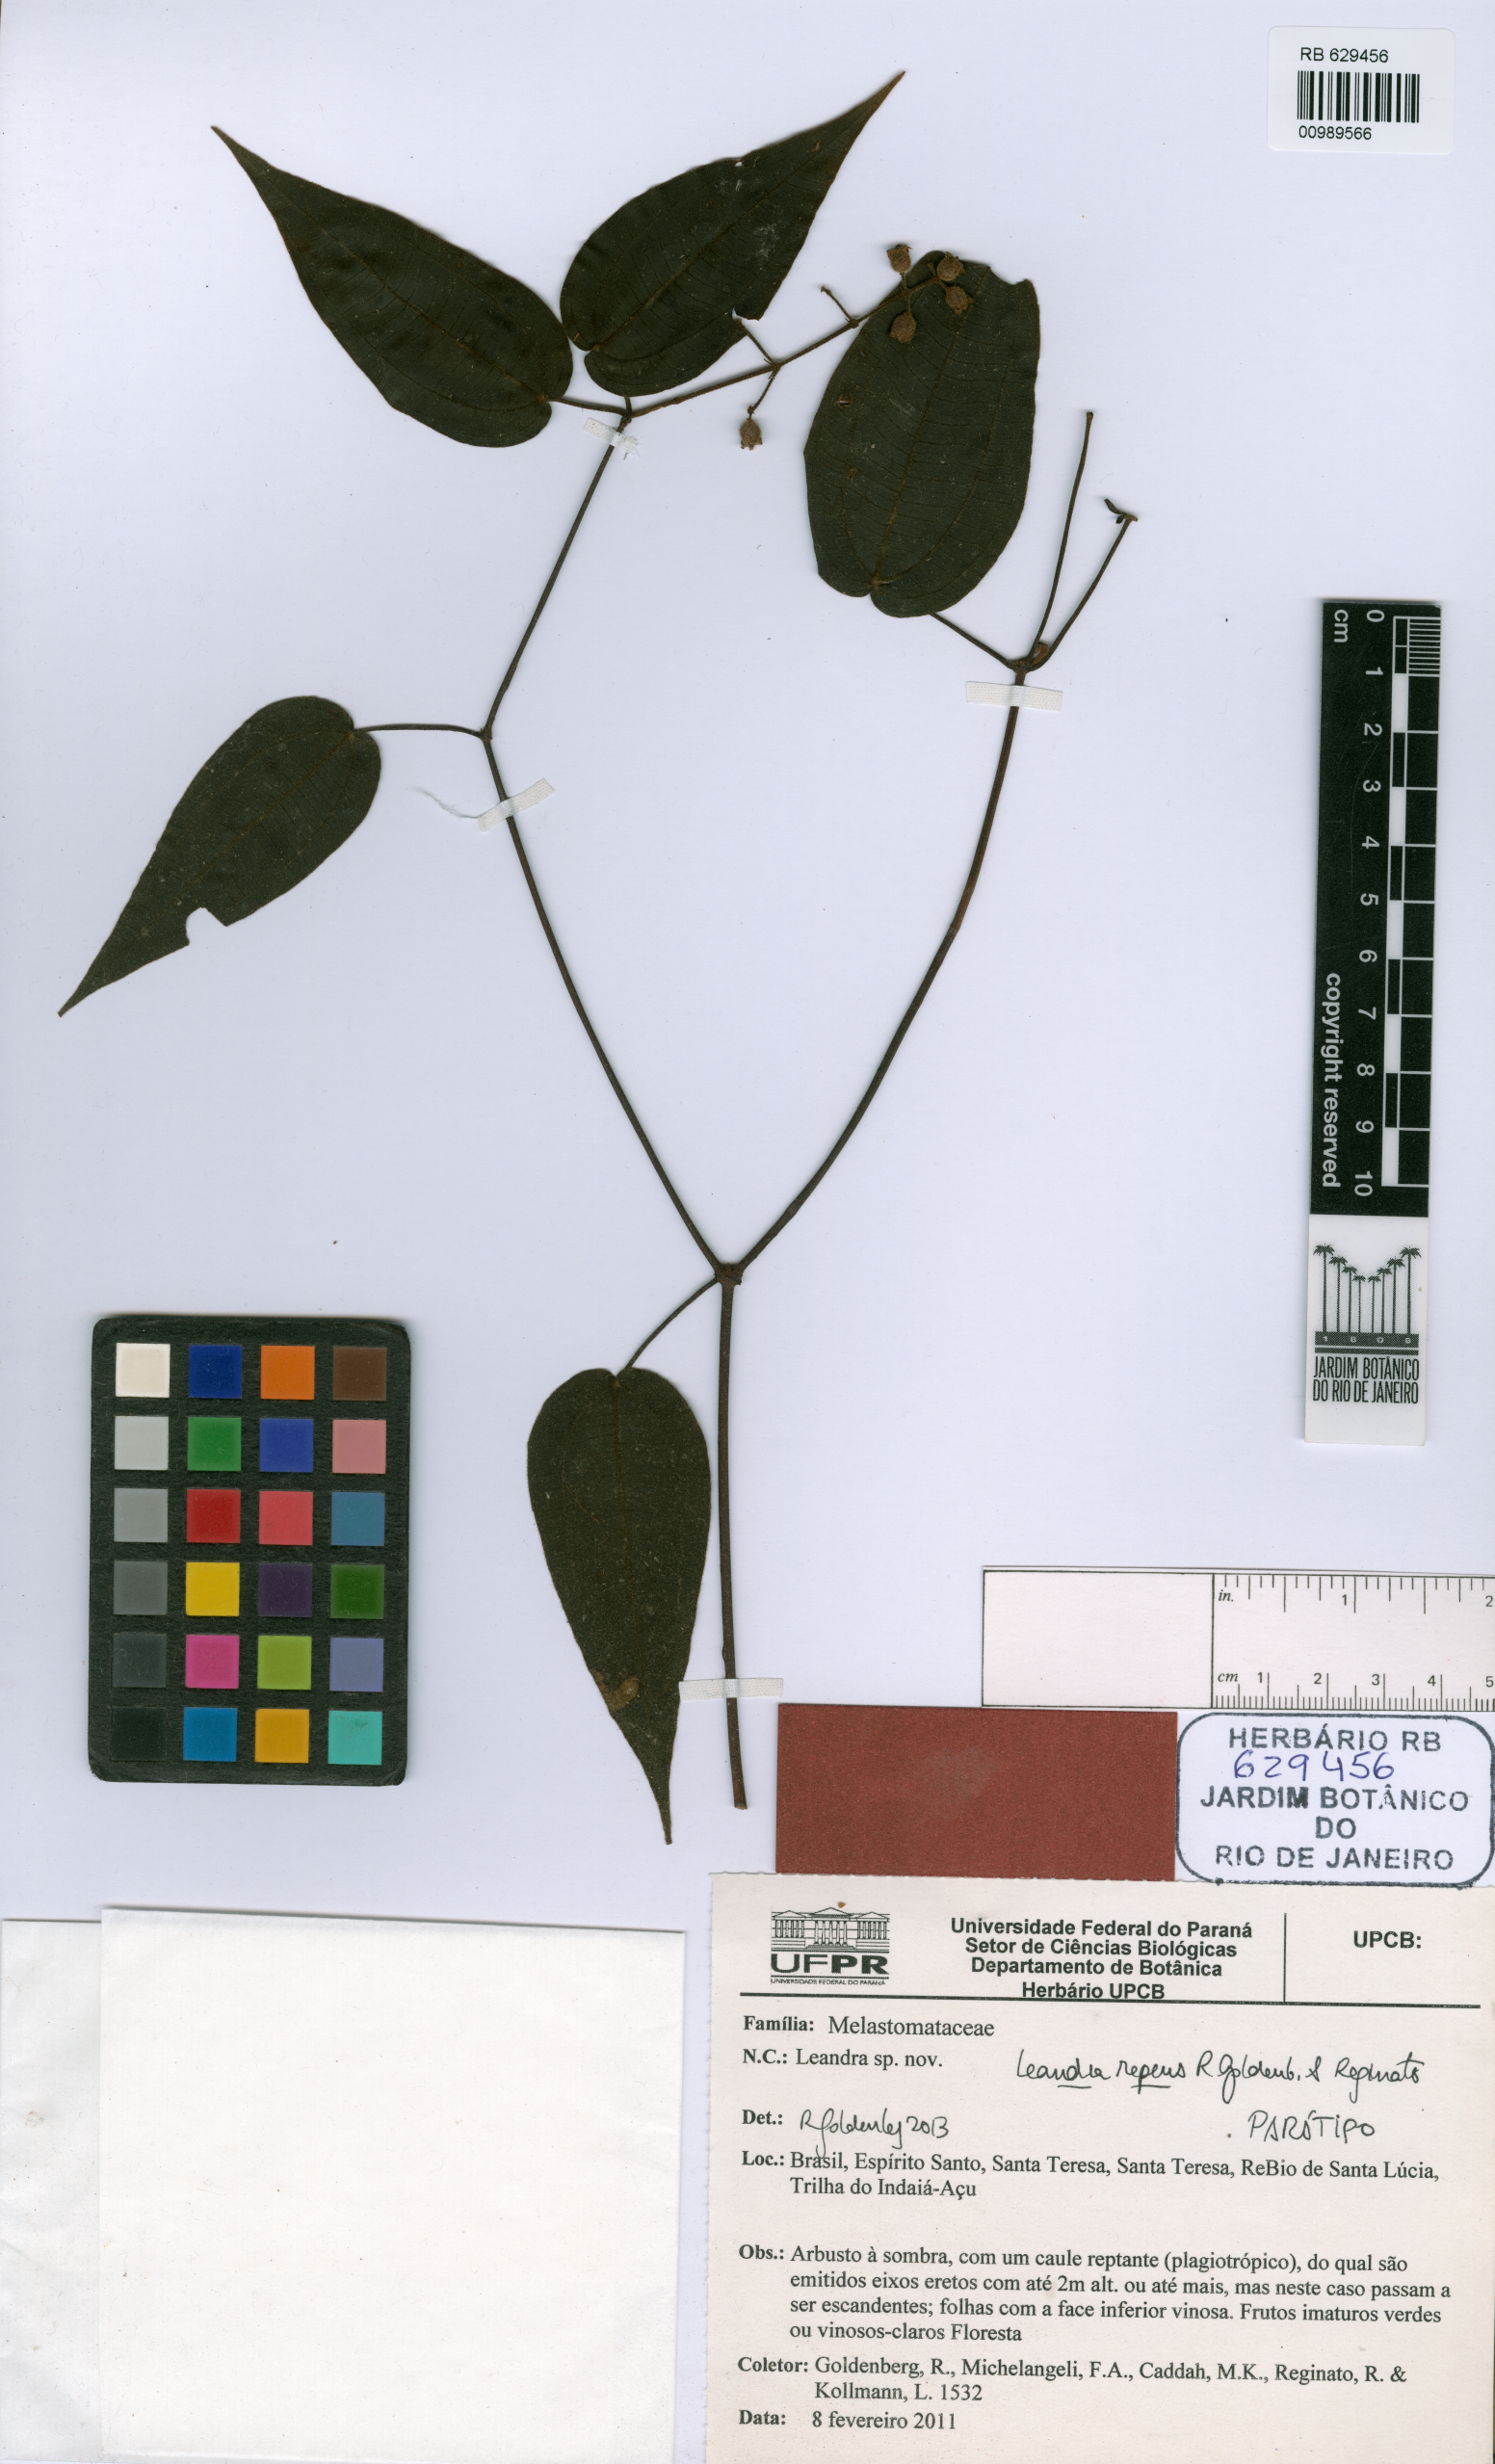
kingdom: Plantae
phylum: Tracheophyta
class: Magnoliopsida
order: Myrtales
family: Melastomataceae
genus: Miconia
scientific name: Miconia reptans
